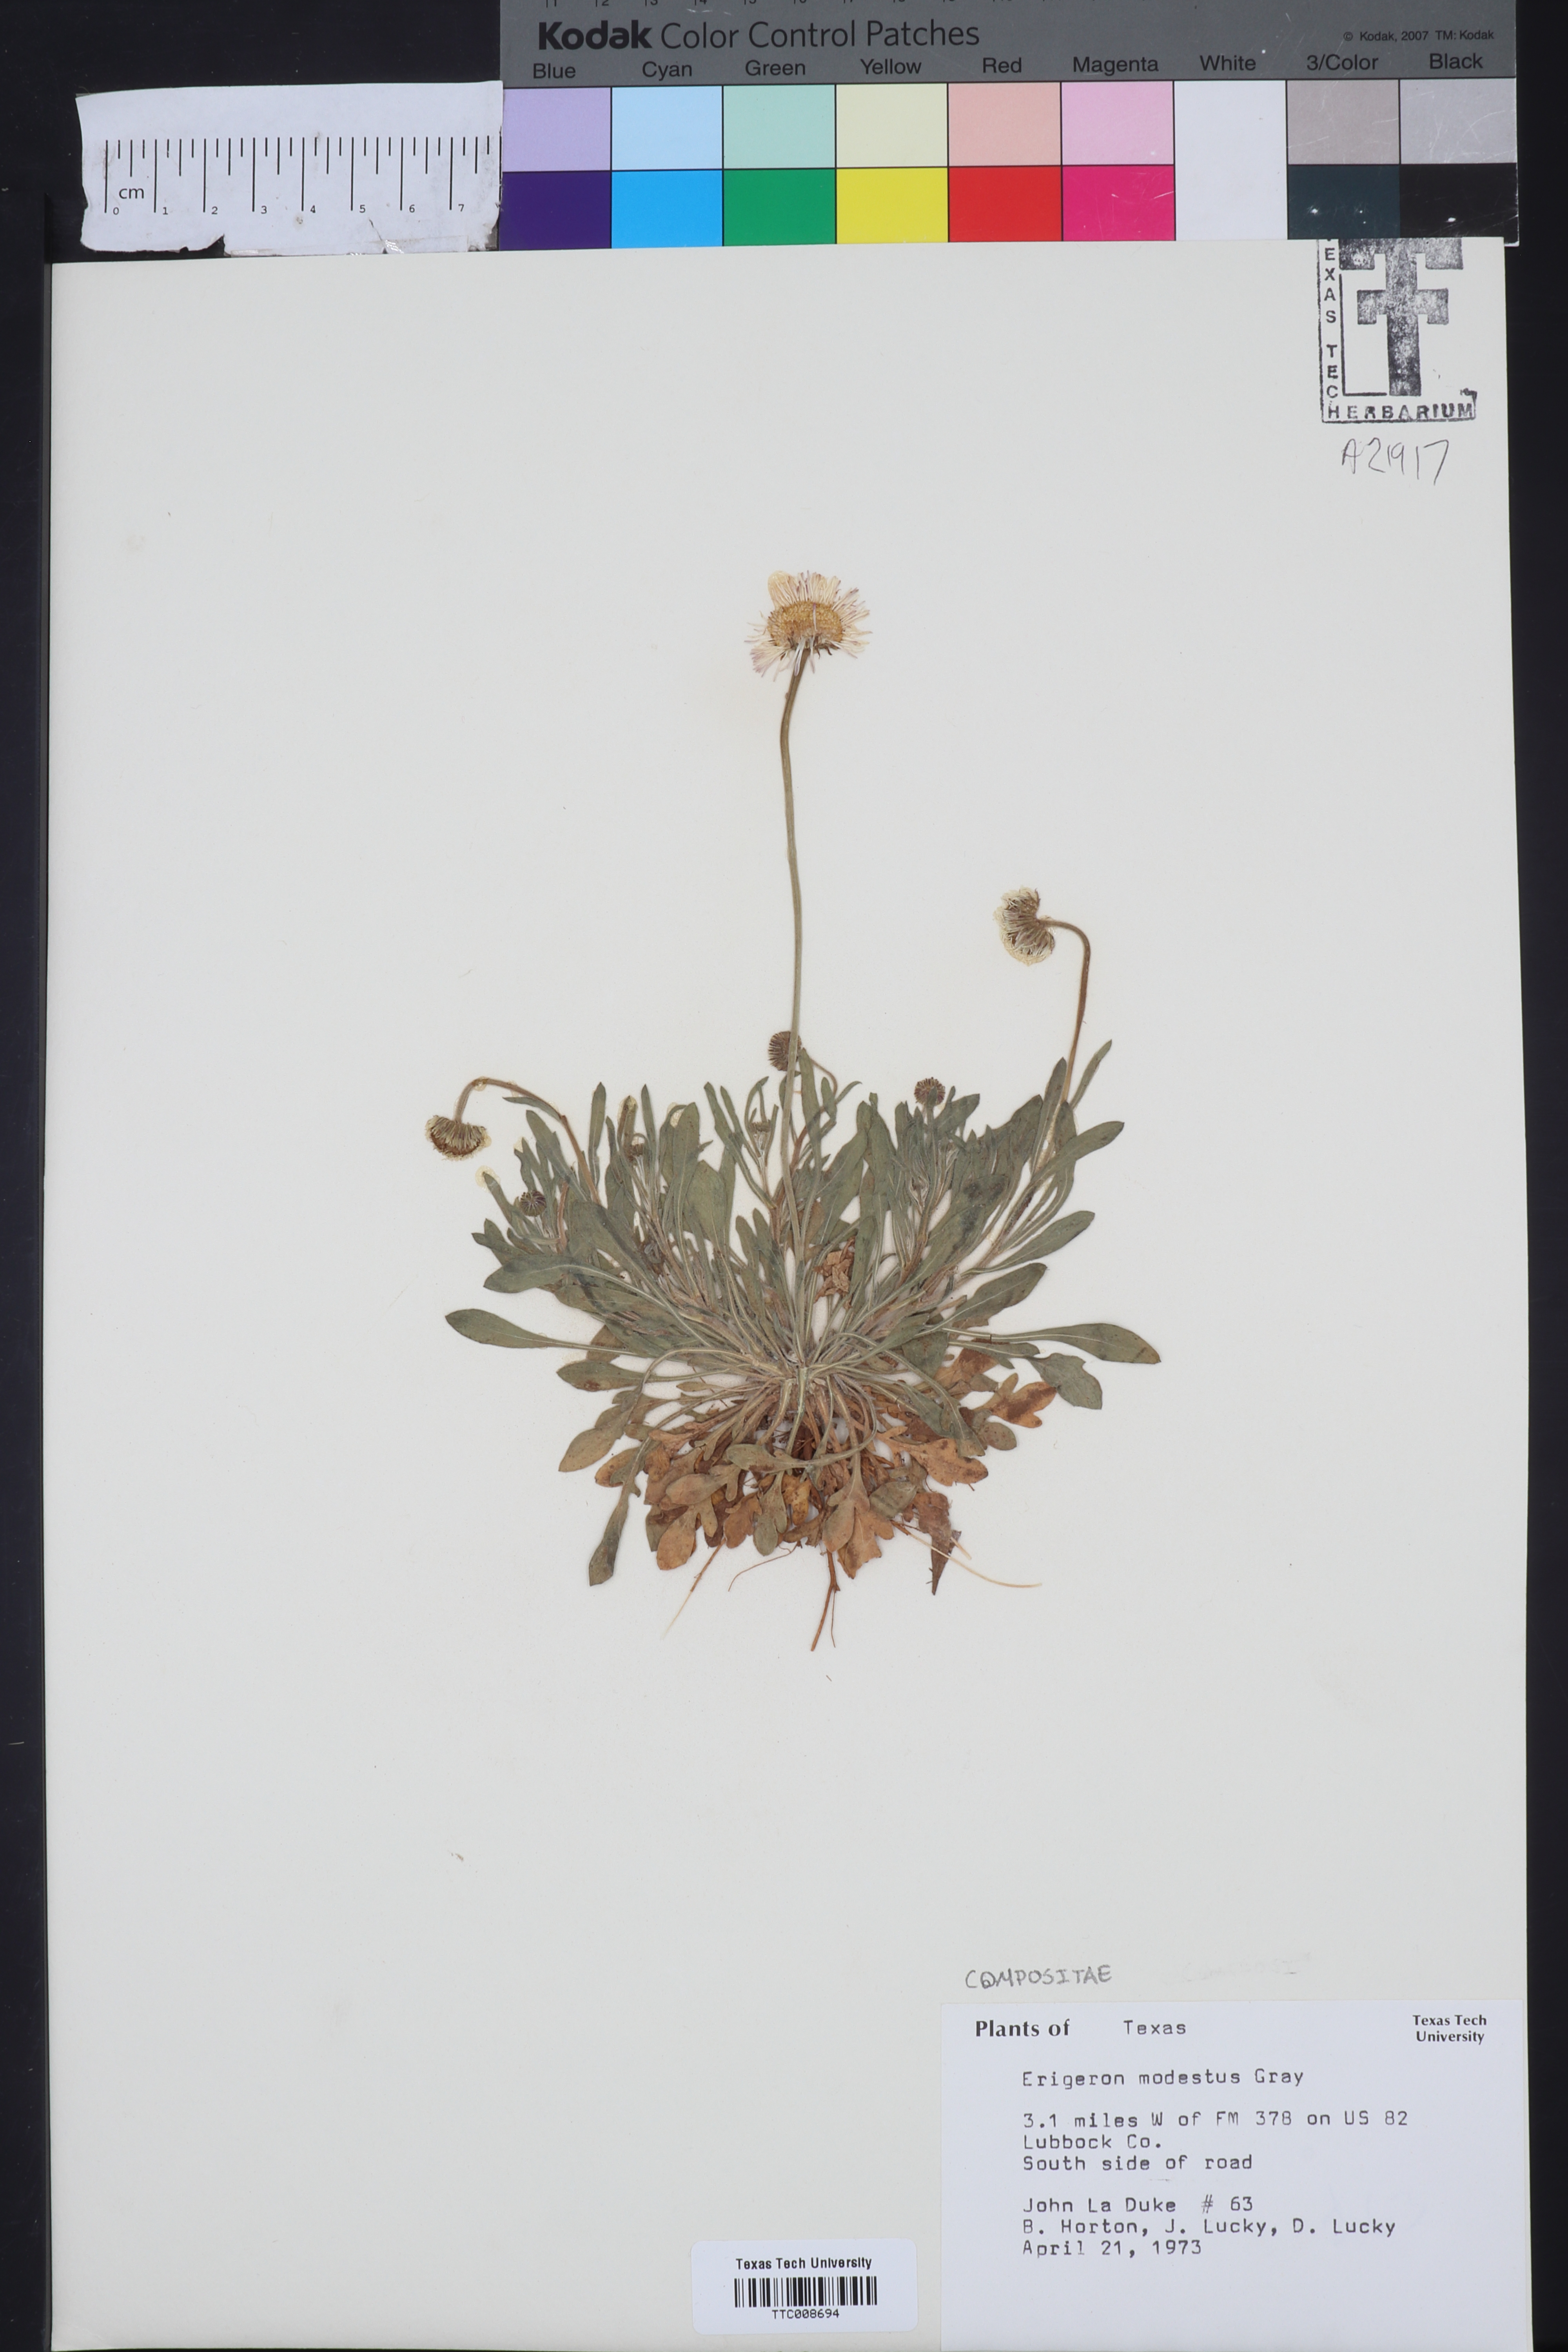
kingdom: Plantae
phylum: Tracheophyta
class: Magnoliopsida
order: Asterales
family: Asteraceae
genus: Erigeron
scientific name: Erigeron modestus
